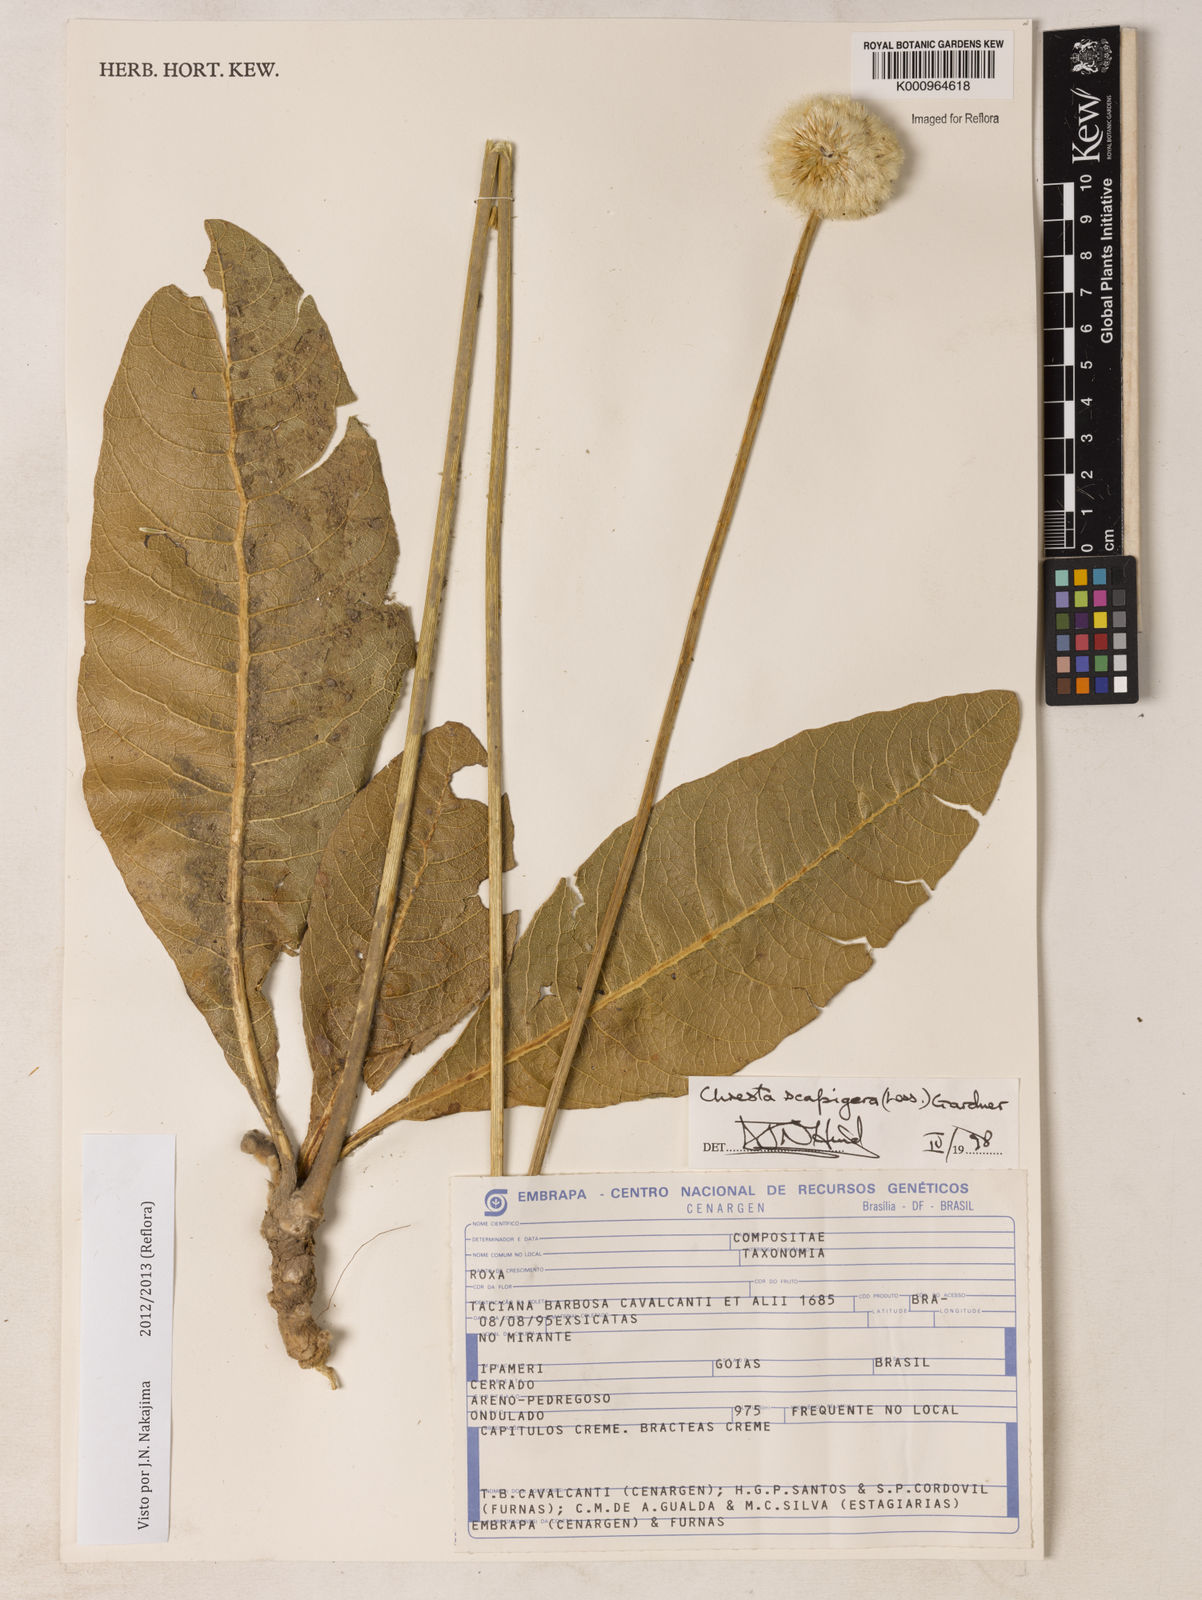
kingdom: Plantae
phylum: Tracheophyta
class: Magnoliopsida
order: Asterales
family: Asteraceae
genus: Chresta
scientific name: Chresta scapigera
